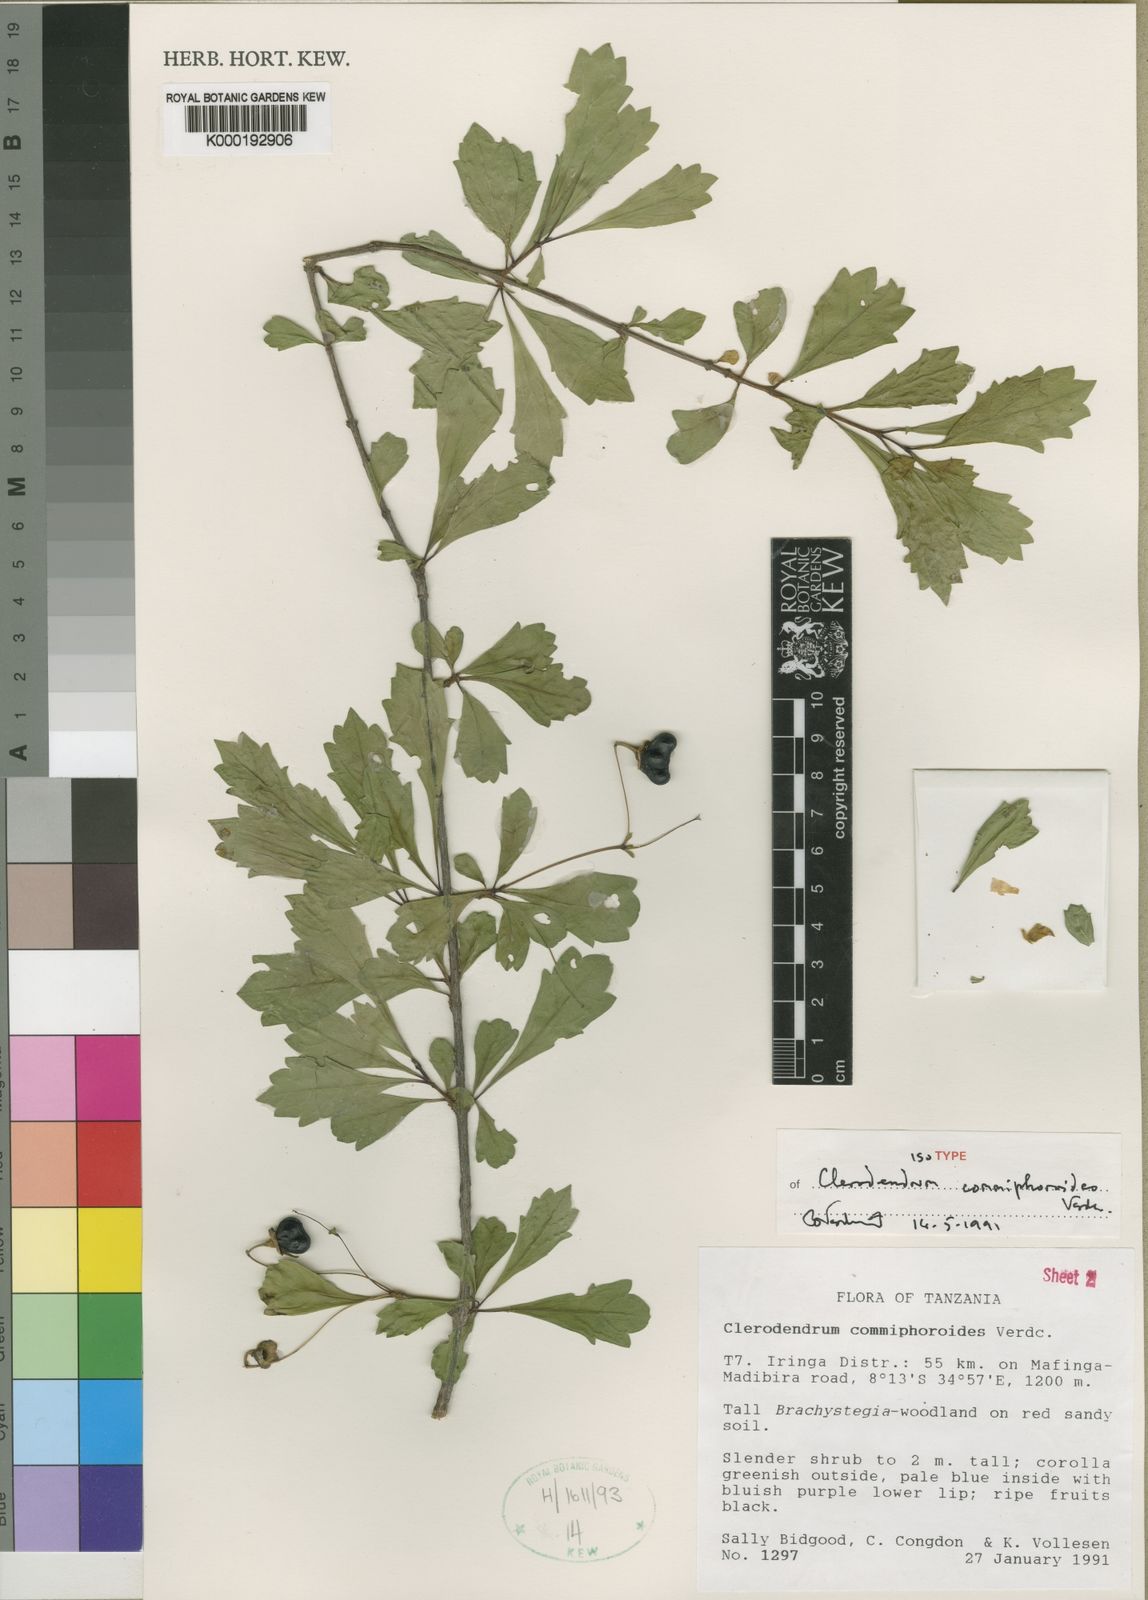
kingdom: Plantae
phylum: Tracheophyta
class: Magnoliopsida
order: Lamiales
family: Lamiaceae
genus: Rotheca
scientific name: Rotheca commiphoroides
